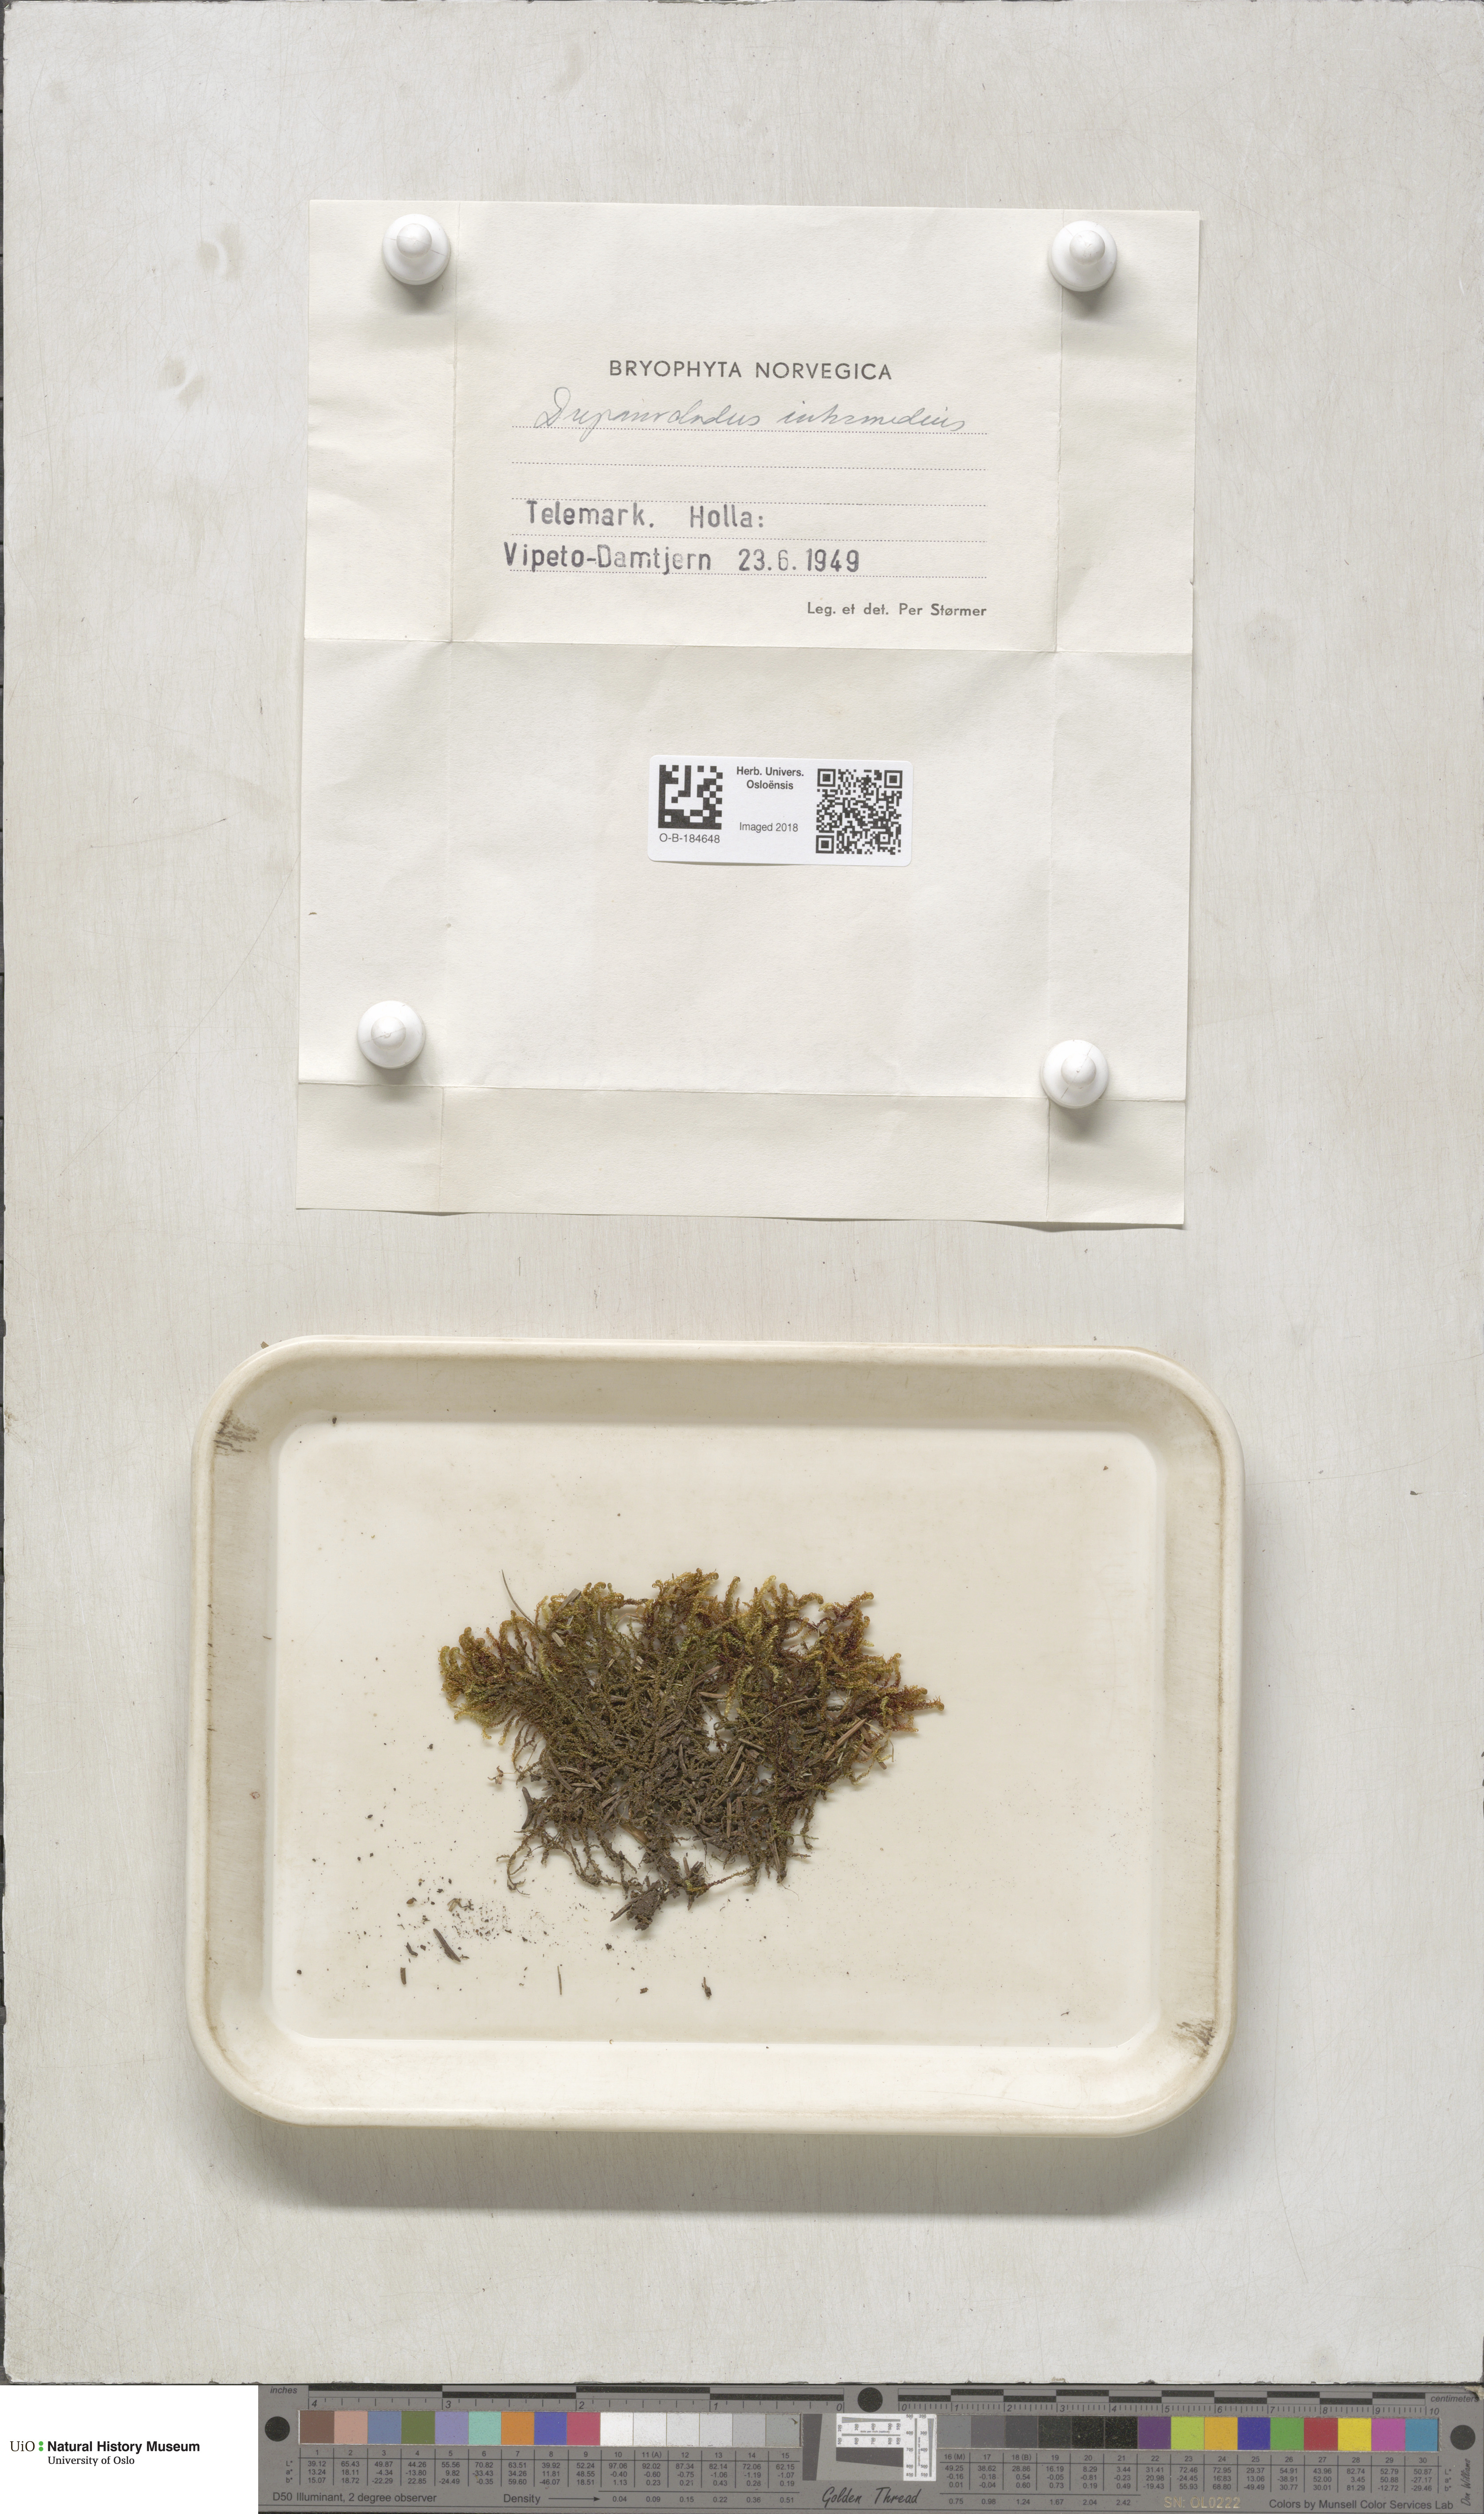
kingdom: Plantae
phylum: Bryophyta
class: Bryopsida
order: Hypnales
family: Scorpidiaceae
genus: Scorpidium
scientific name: Scorpidium cossonii
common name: Cosson's hook moss
